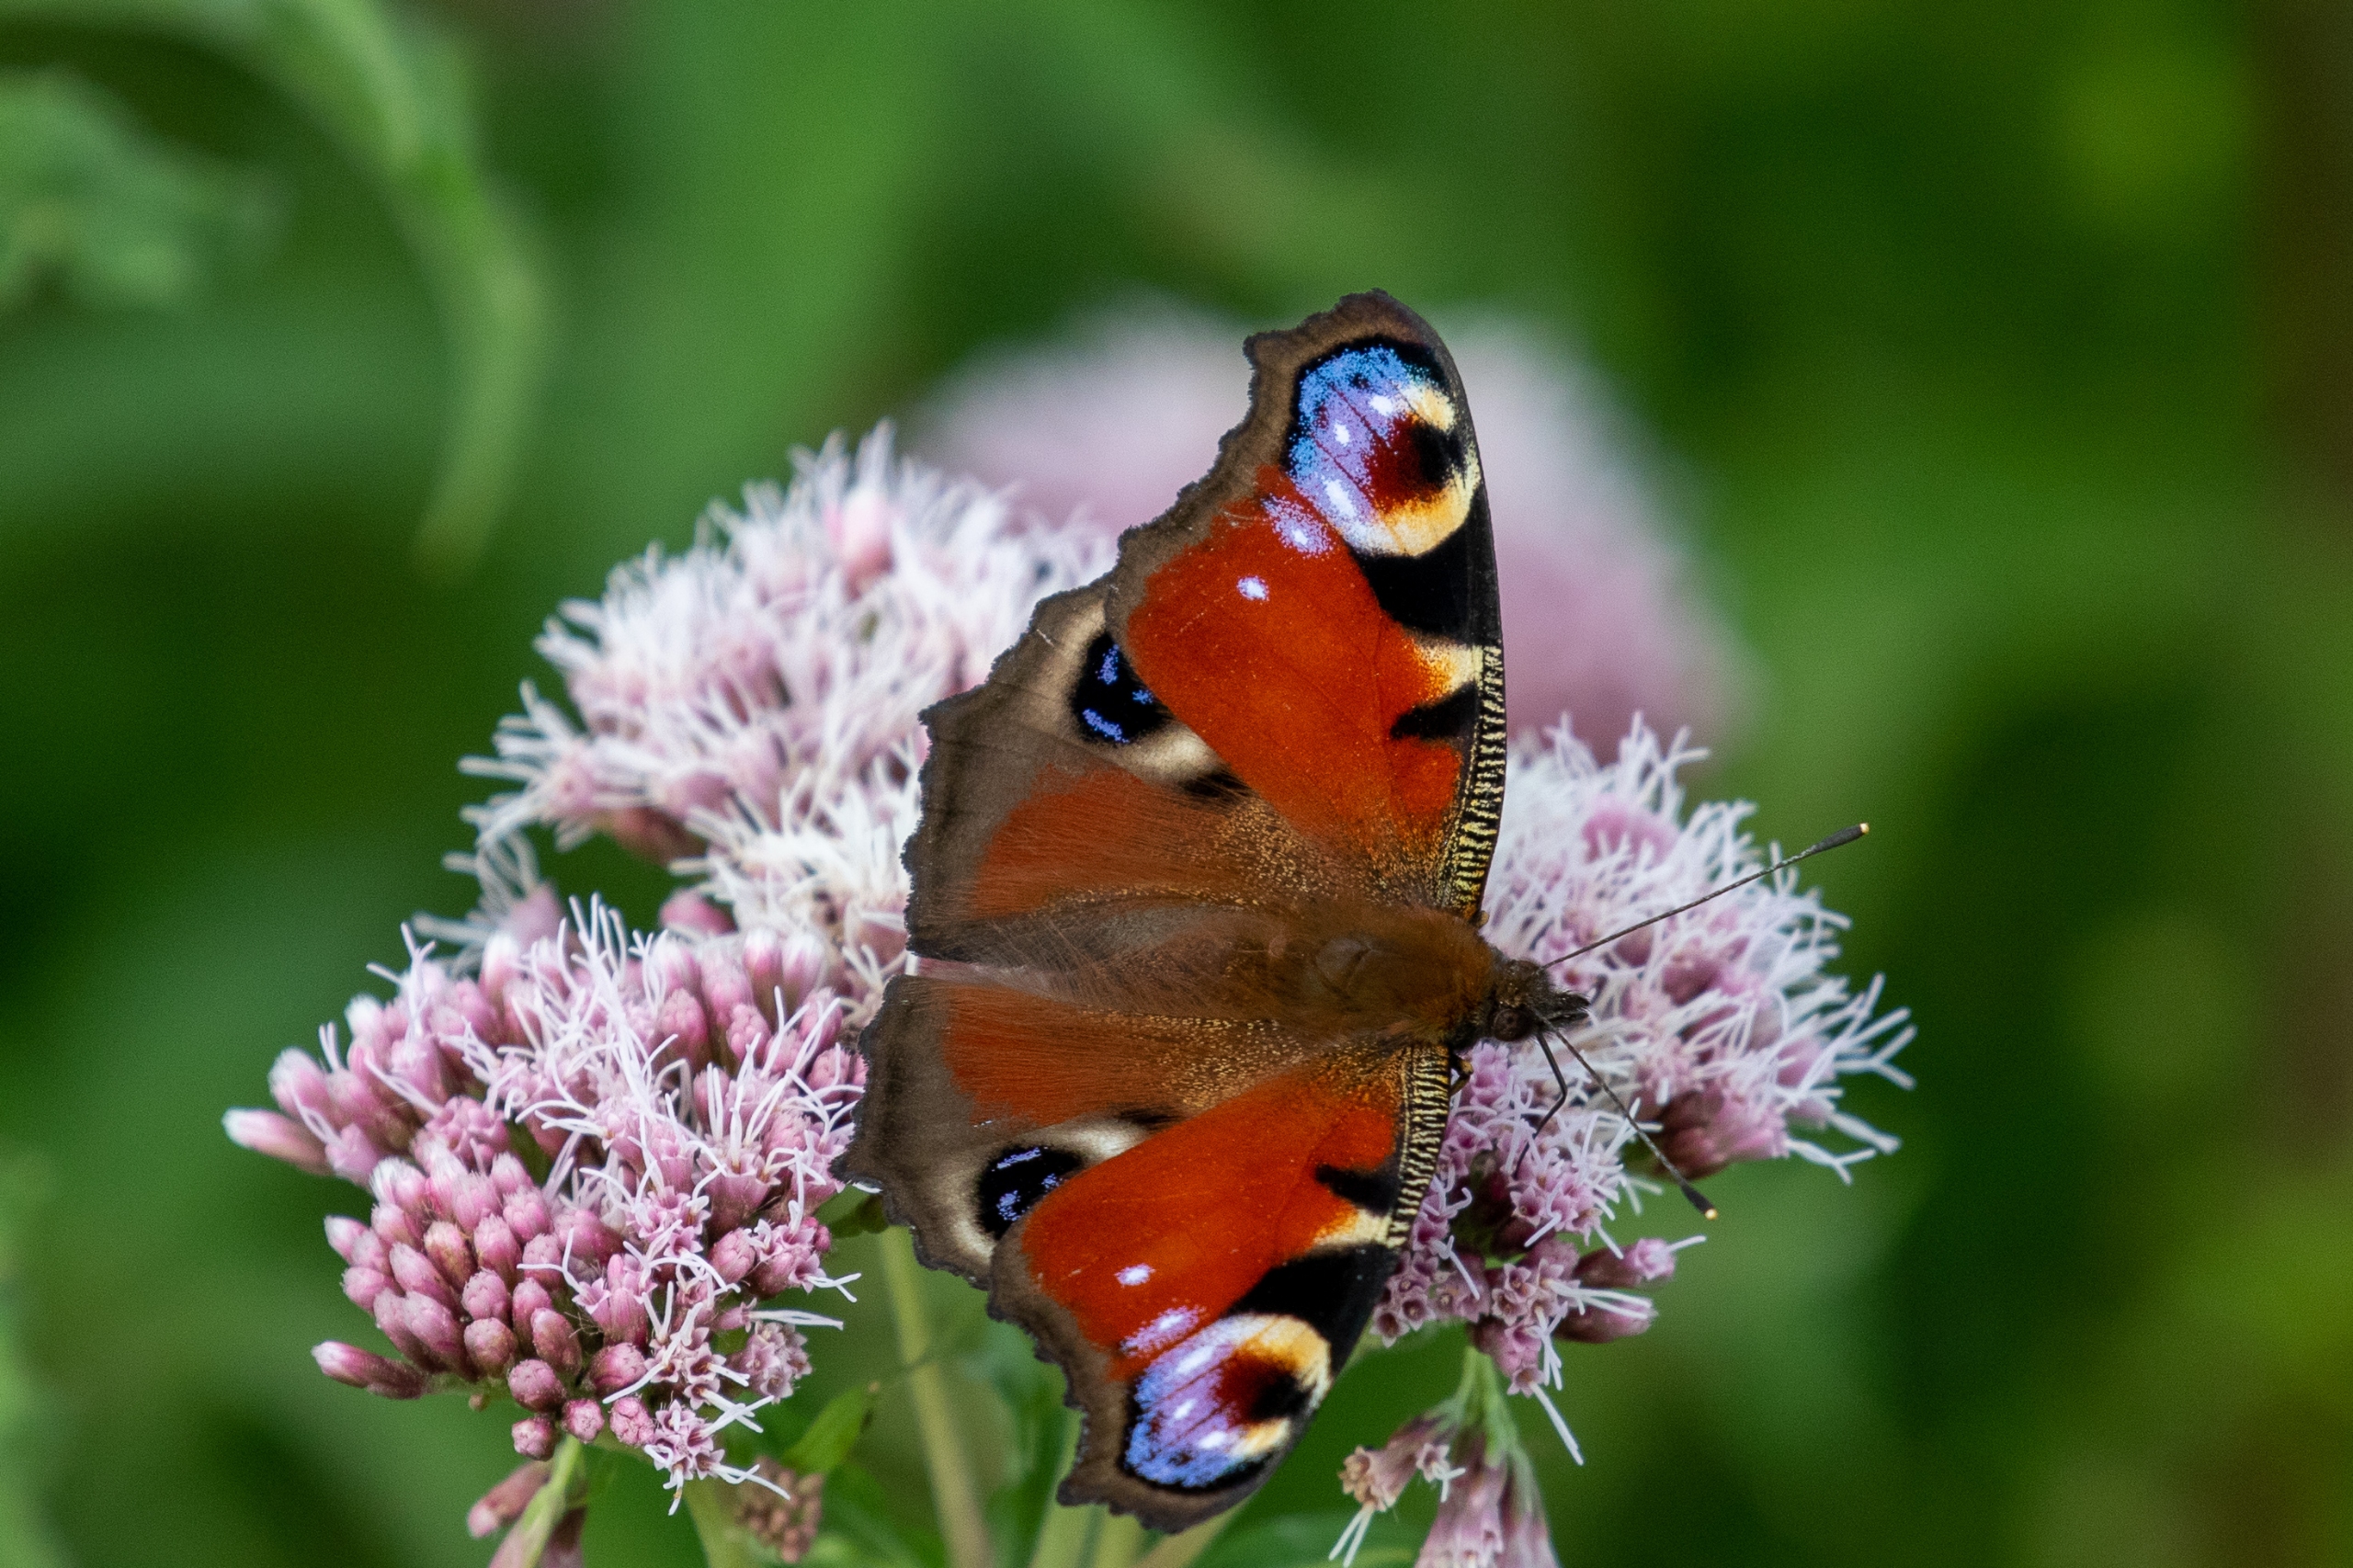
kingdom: Animalia
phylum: Arthropoda
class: Insecta
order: Lepidoptera
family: Nymphalidae
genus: Aglais
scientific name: Aglais io
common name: Dagpåfugleøje
